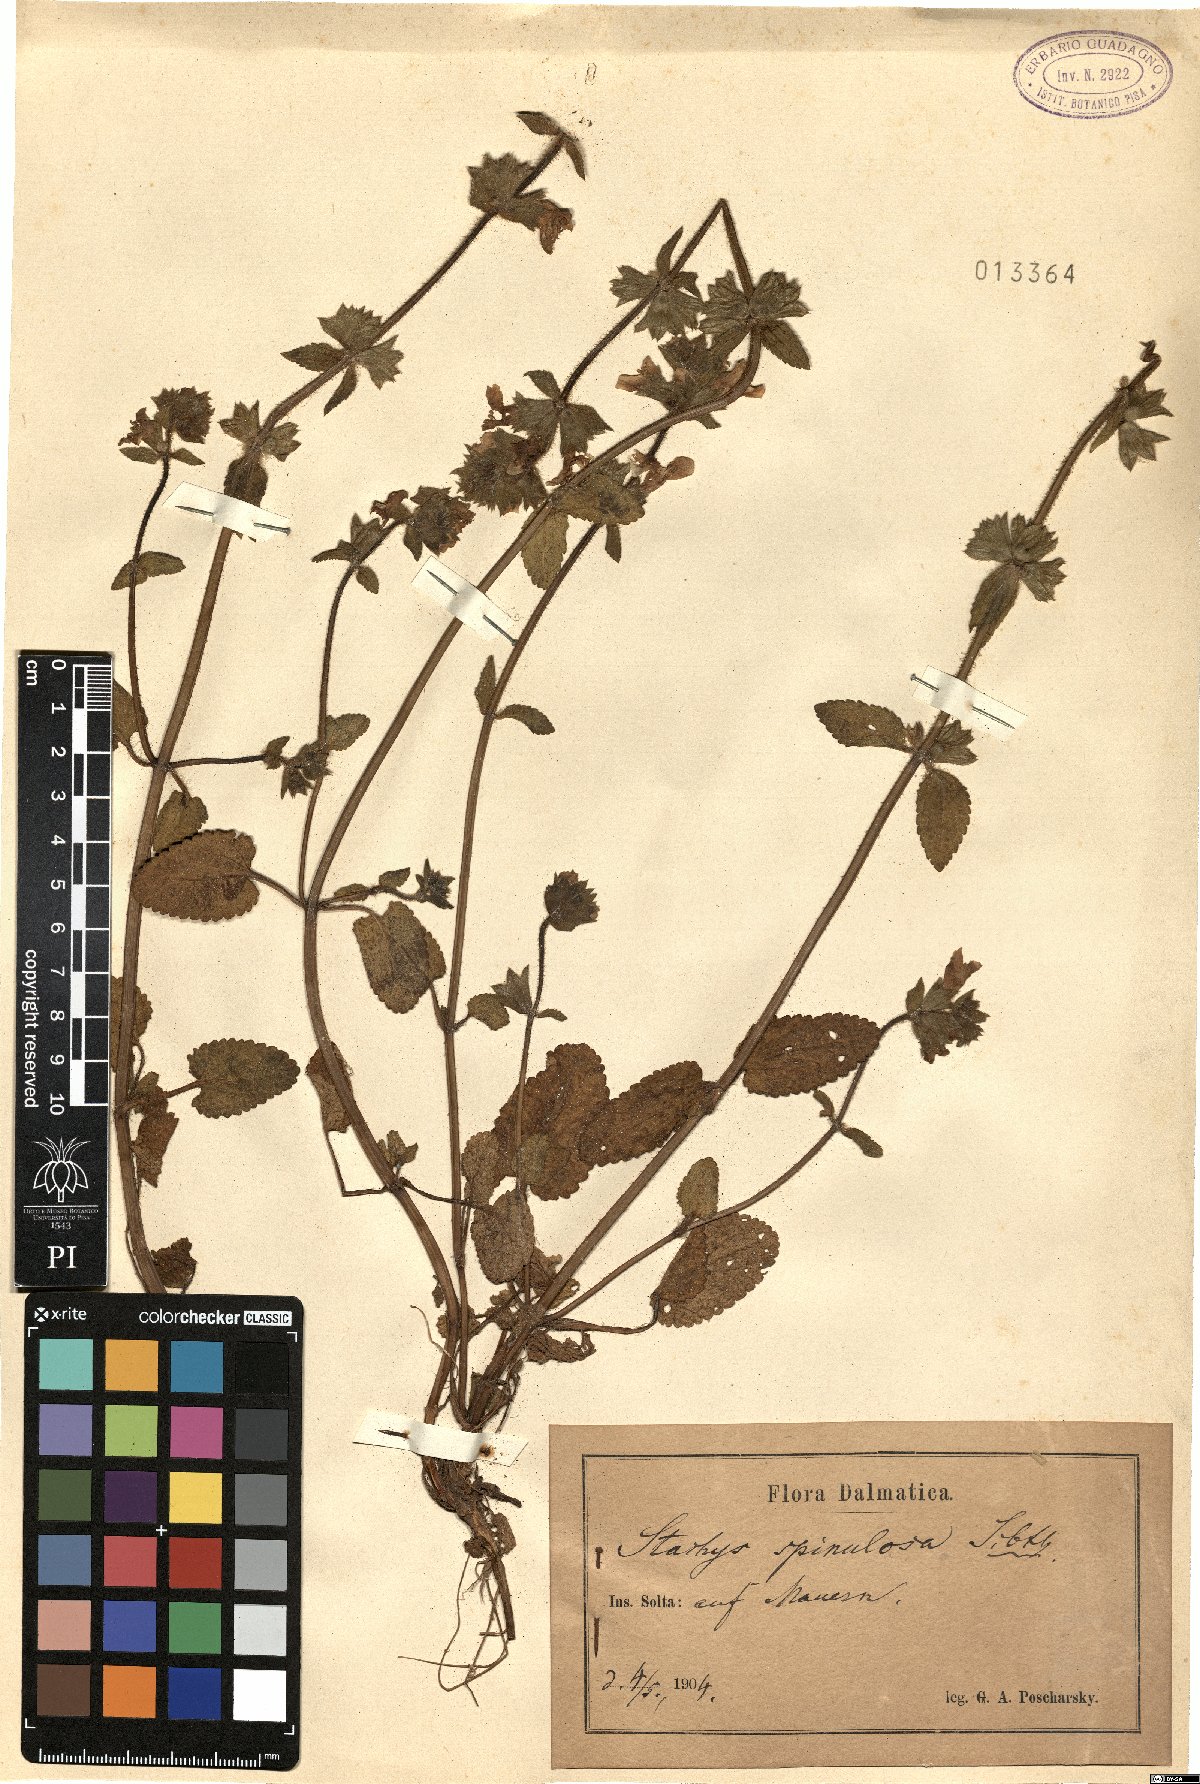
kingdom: Plantae
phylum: Tracheophyta
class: Magnoliopsida
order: Lamiales
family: Lamiaceae
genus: Stachys
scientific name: Stachys spinulosa
